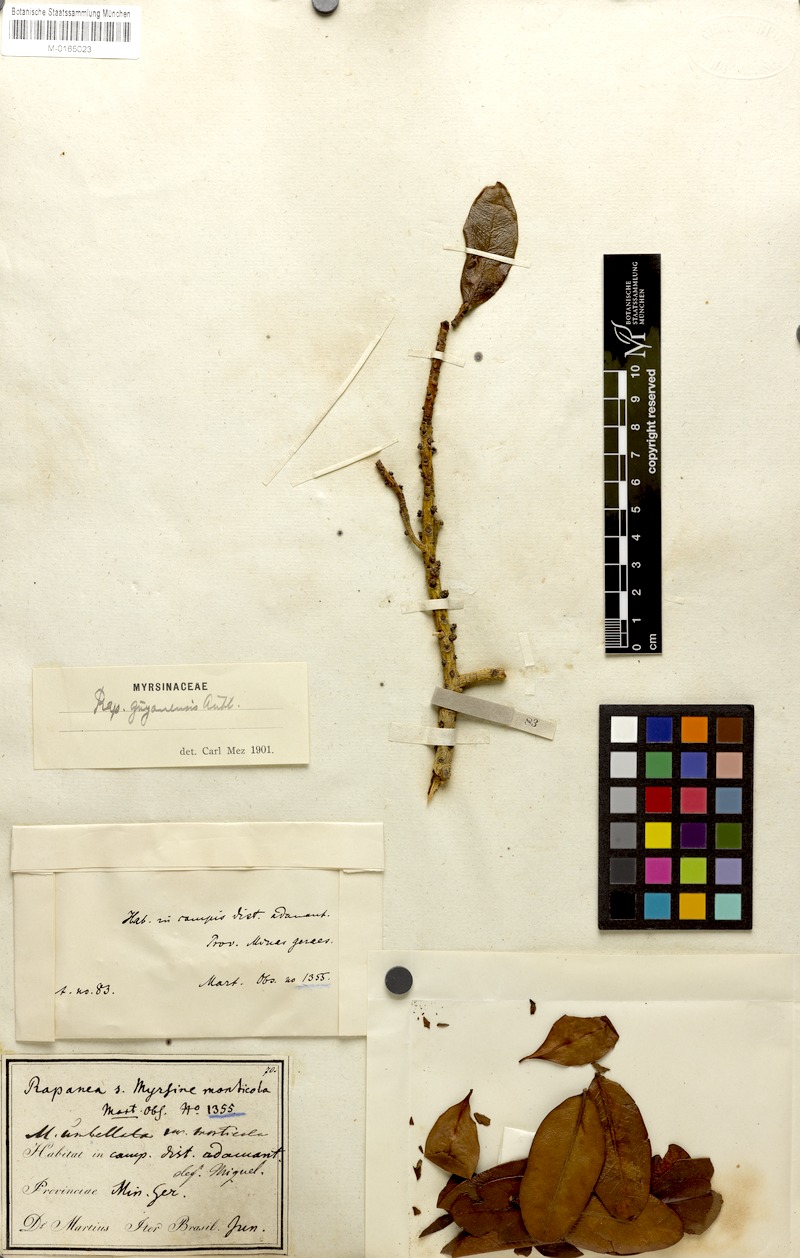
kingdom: Plantae
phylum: Tracheophyta
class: Magnoliopsida
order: Ericales
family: Primulaceae
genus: Myrsine
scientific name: Myrsine monticola
